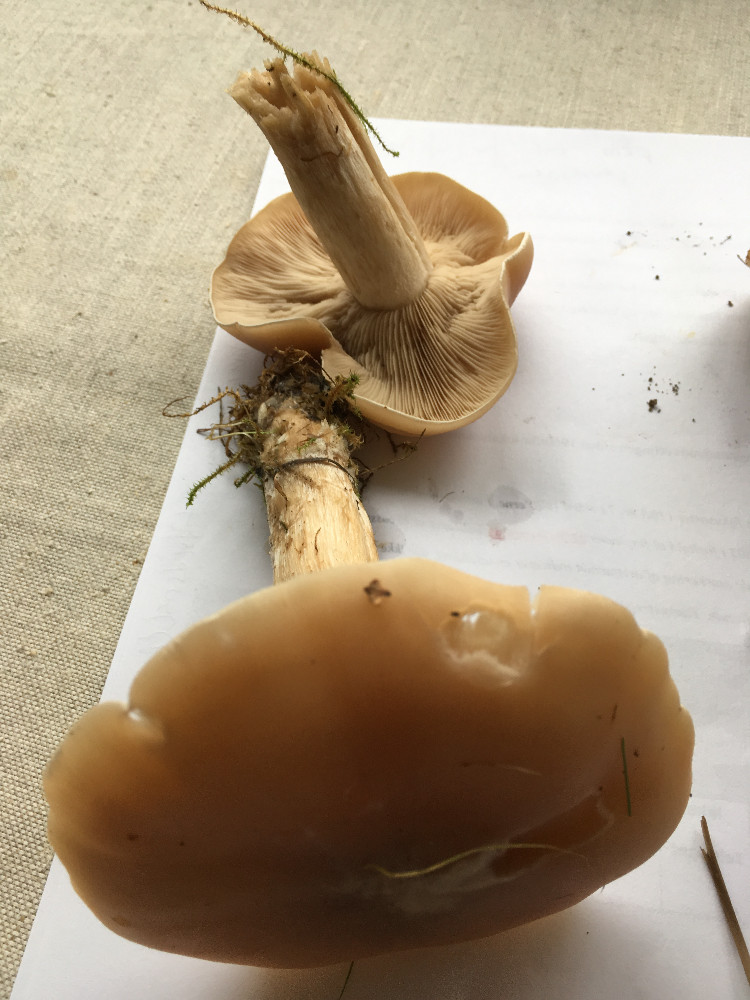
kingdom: Fungi
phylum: Basidiomycota
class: Agaricomycetes
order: Agaricales
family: Tricholomataceae
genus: Lepista
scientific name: Lepista irina
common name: violduftende hekseringshat
